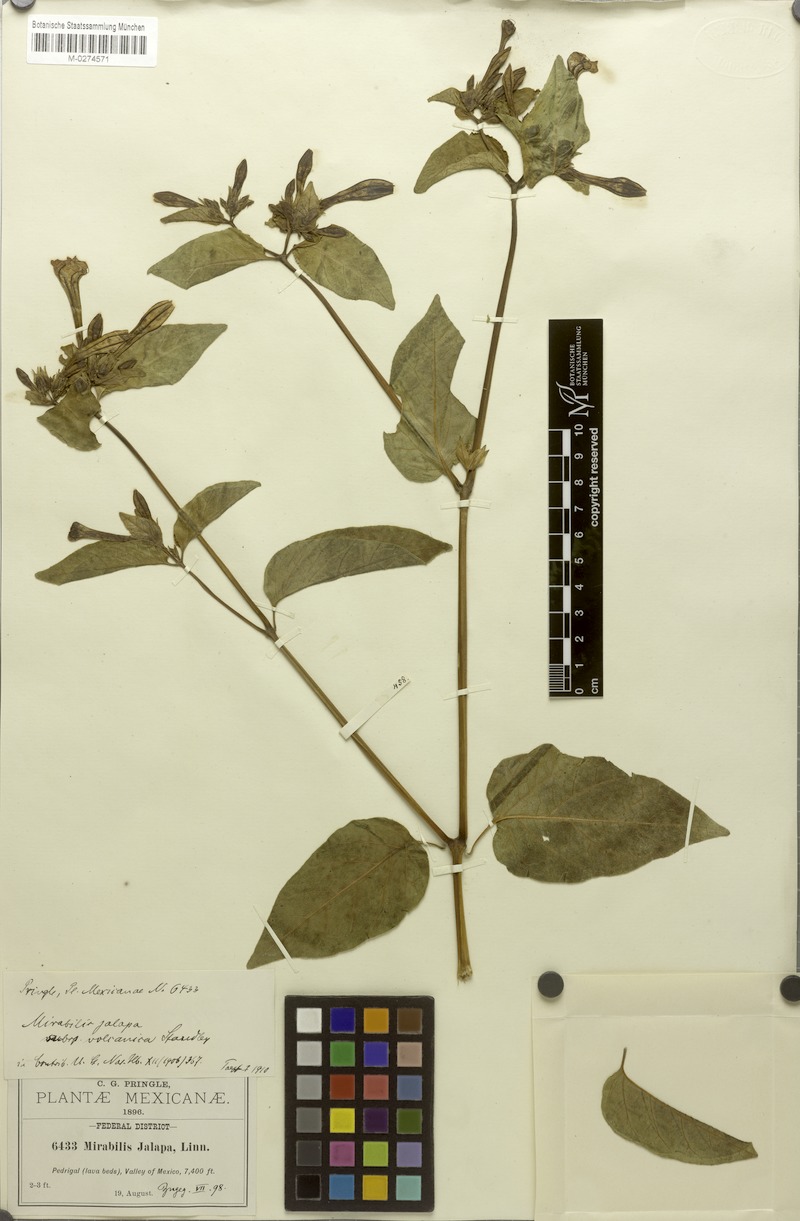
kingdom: Plantae
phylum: Tracheophyta
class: Magnoliopsida
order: Caryophyllales
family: Nyctaginaceae
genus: Mirabilis
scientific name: Mirabilis jalapa
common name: Marvel-of-peru
